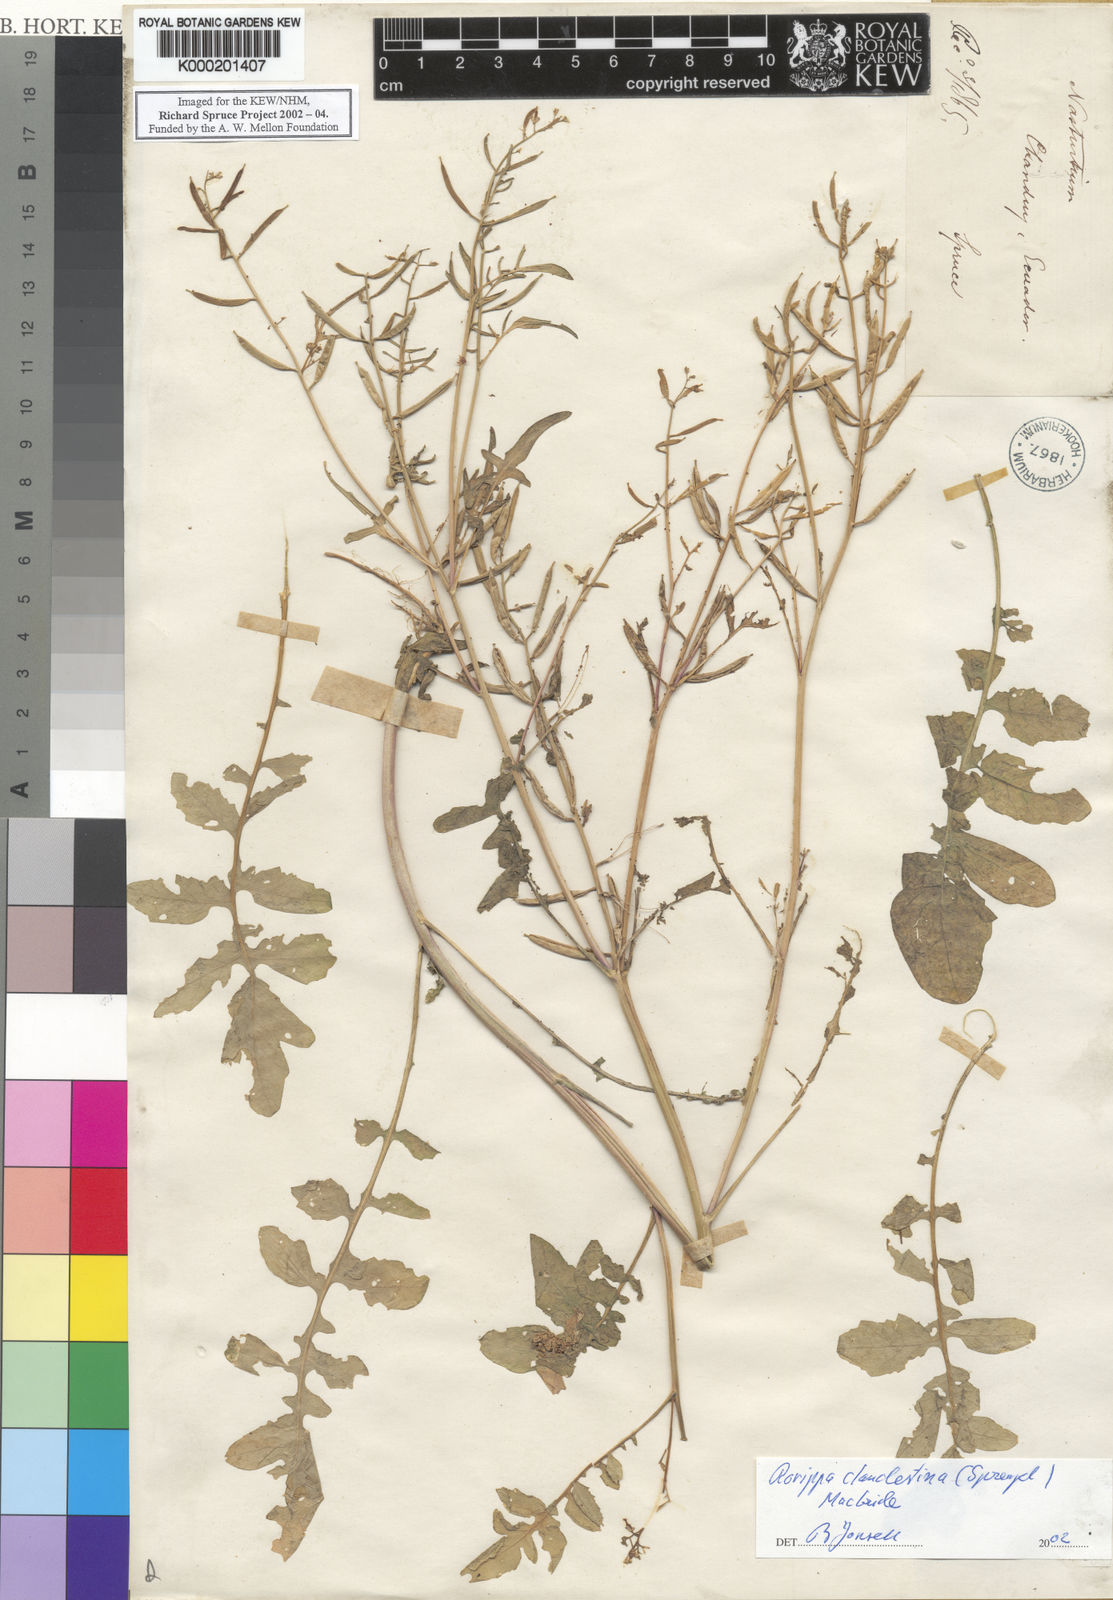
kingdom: Plantae
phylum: Tracheophyta
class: Magnoliopsida
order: Brassicales
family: Brassicaceae
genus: Rorippa
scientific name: Rorippa clandestina
